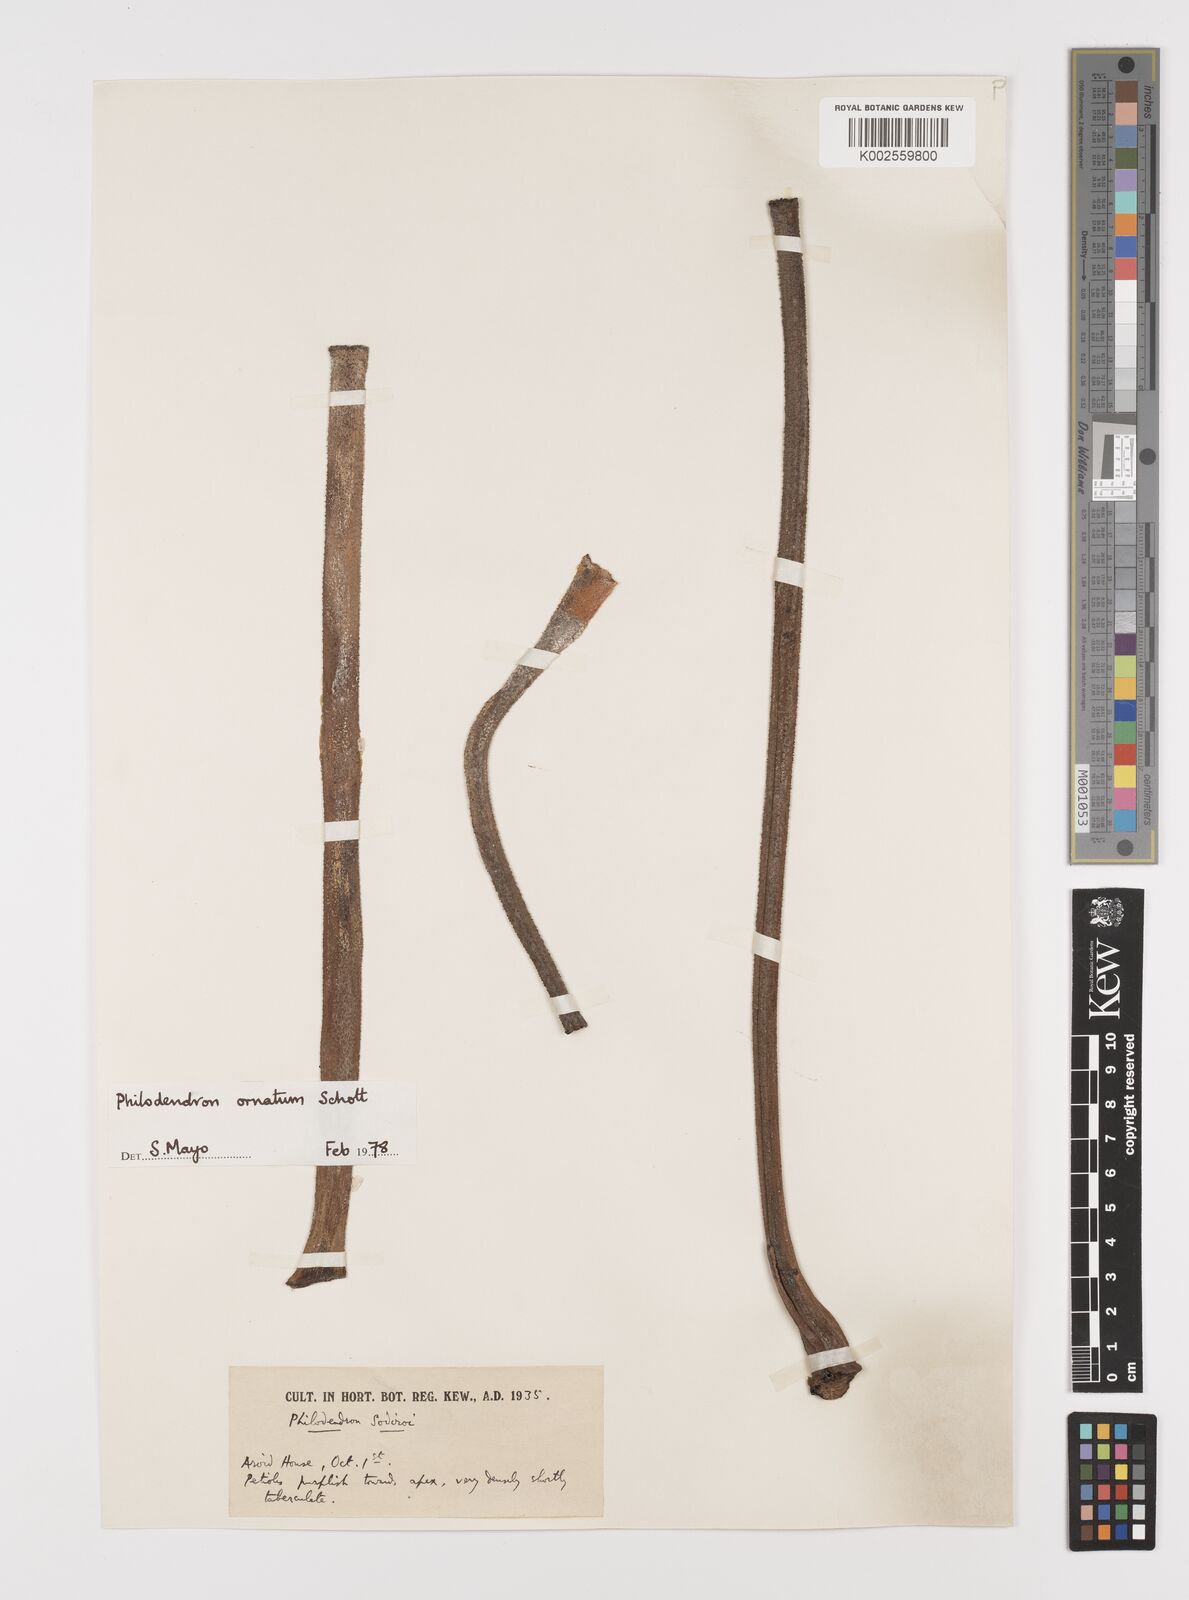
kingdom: Plantae
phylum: Tracheophyta
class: Liliopsida
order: Alismatales
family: Araceae
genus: Philodendron
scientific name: Philodendron ornatum
